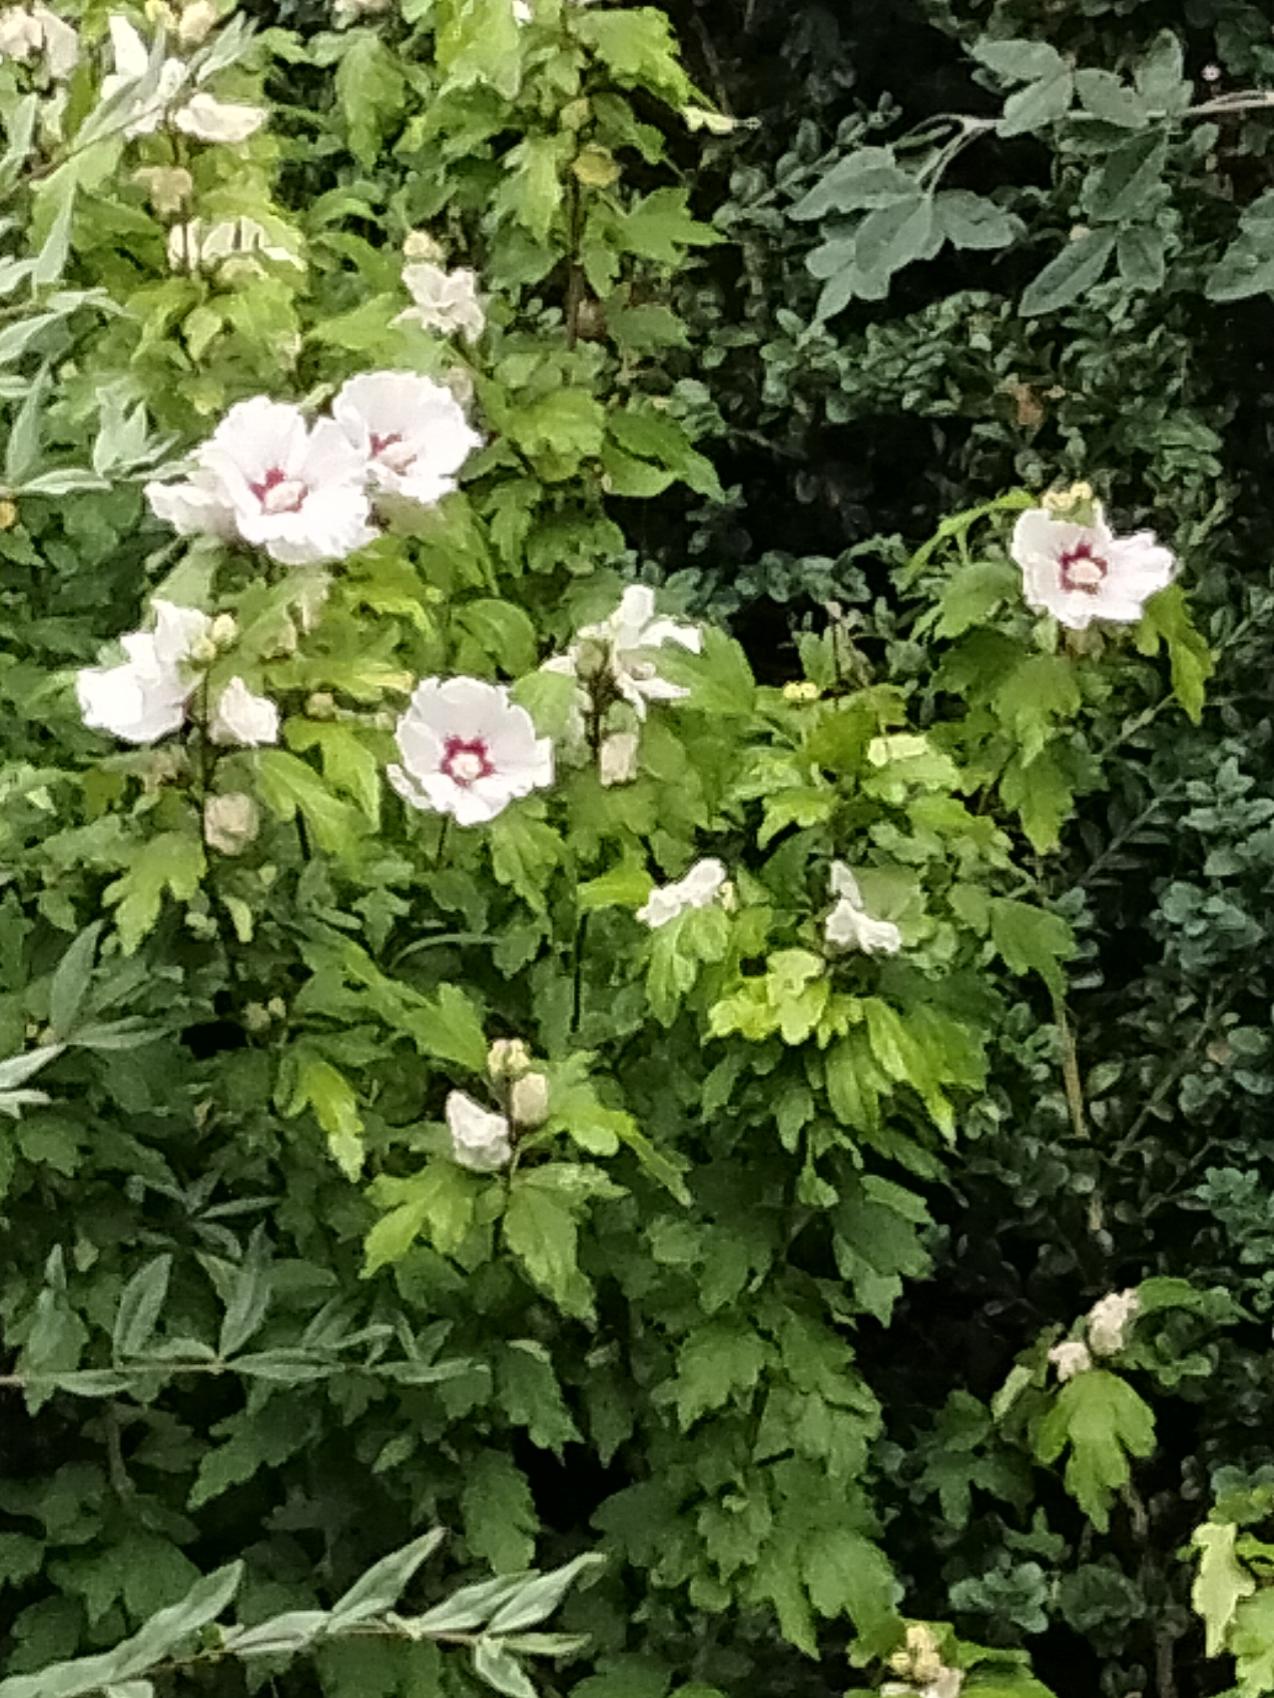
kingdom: Plantae
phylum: Tracheophyta
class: Magnoliopsida
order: Malvales
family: Malvaceae
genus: Hibiscus
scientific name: Hibiscus
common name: Hibiskusslægten
